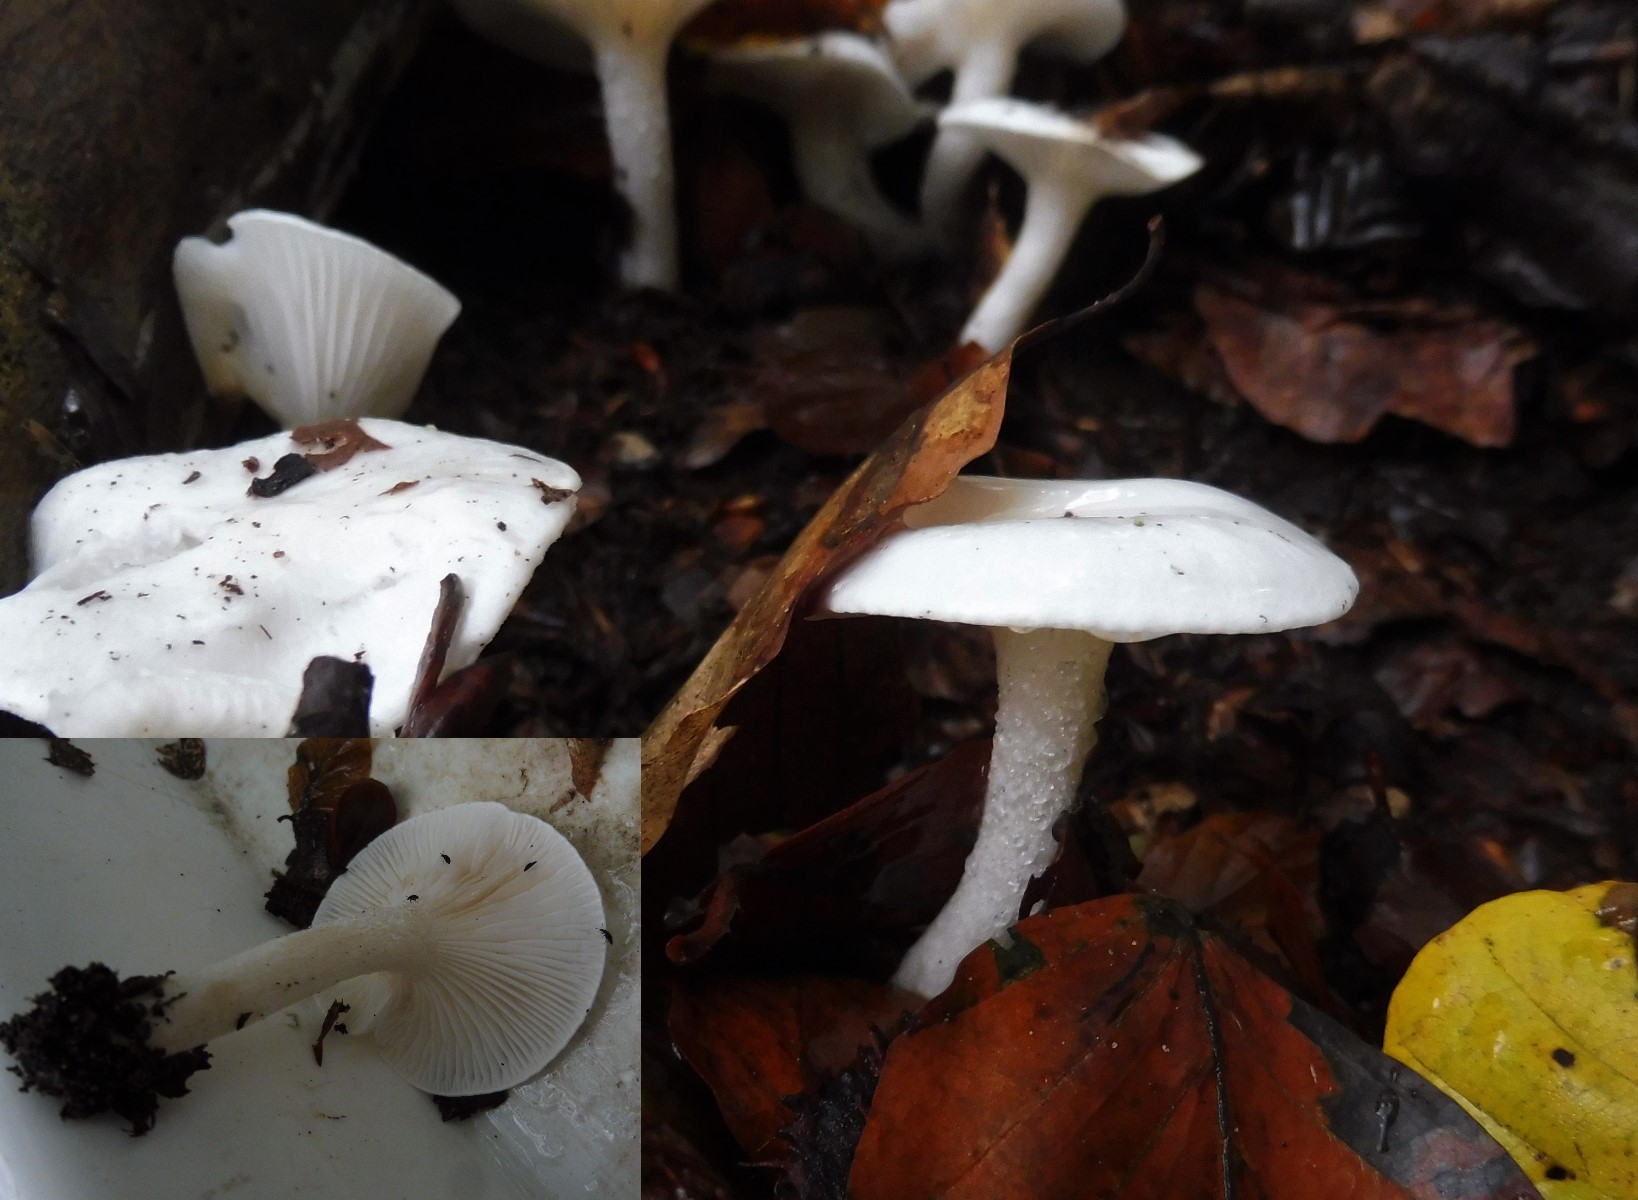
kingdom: Fungi
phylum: Basidiomycota
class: Agaricomycetes
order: Agaricales
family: Hygrophoraceae
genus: Hygrophorus
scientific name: Hygrophorus eburneus
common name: elfenbens-sneglehat
